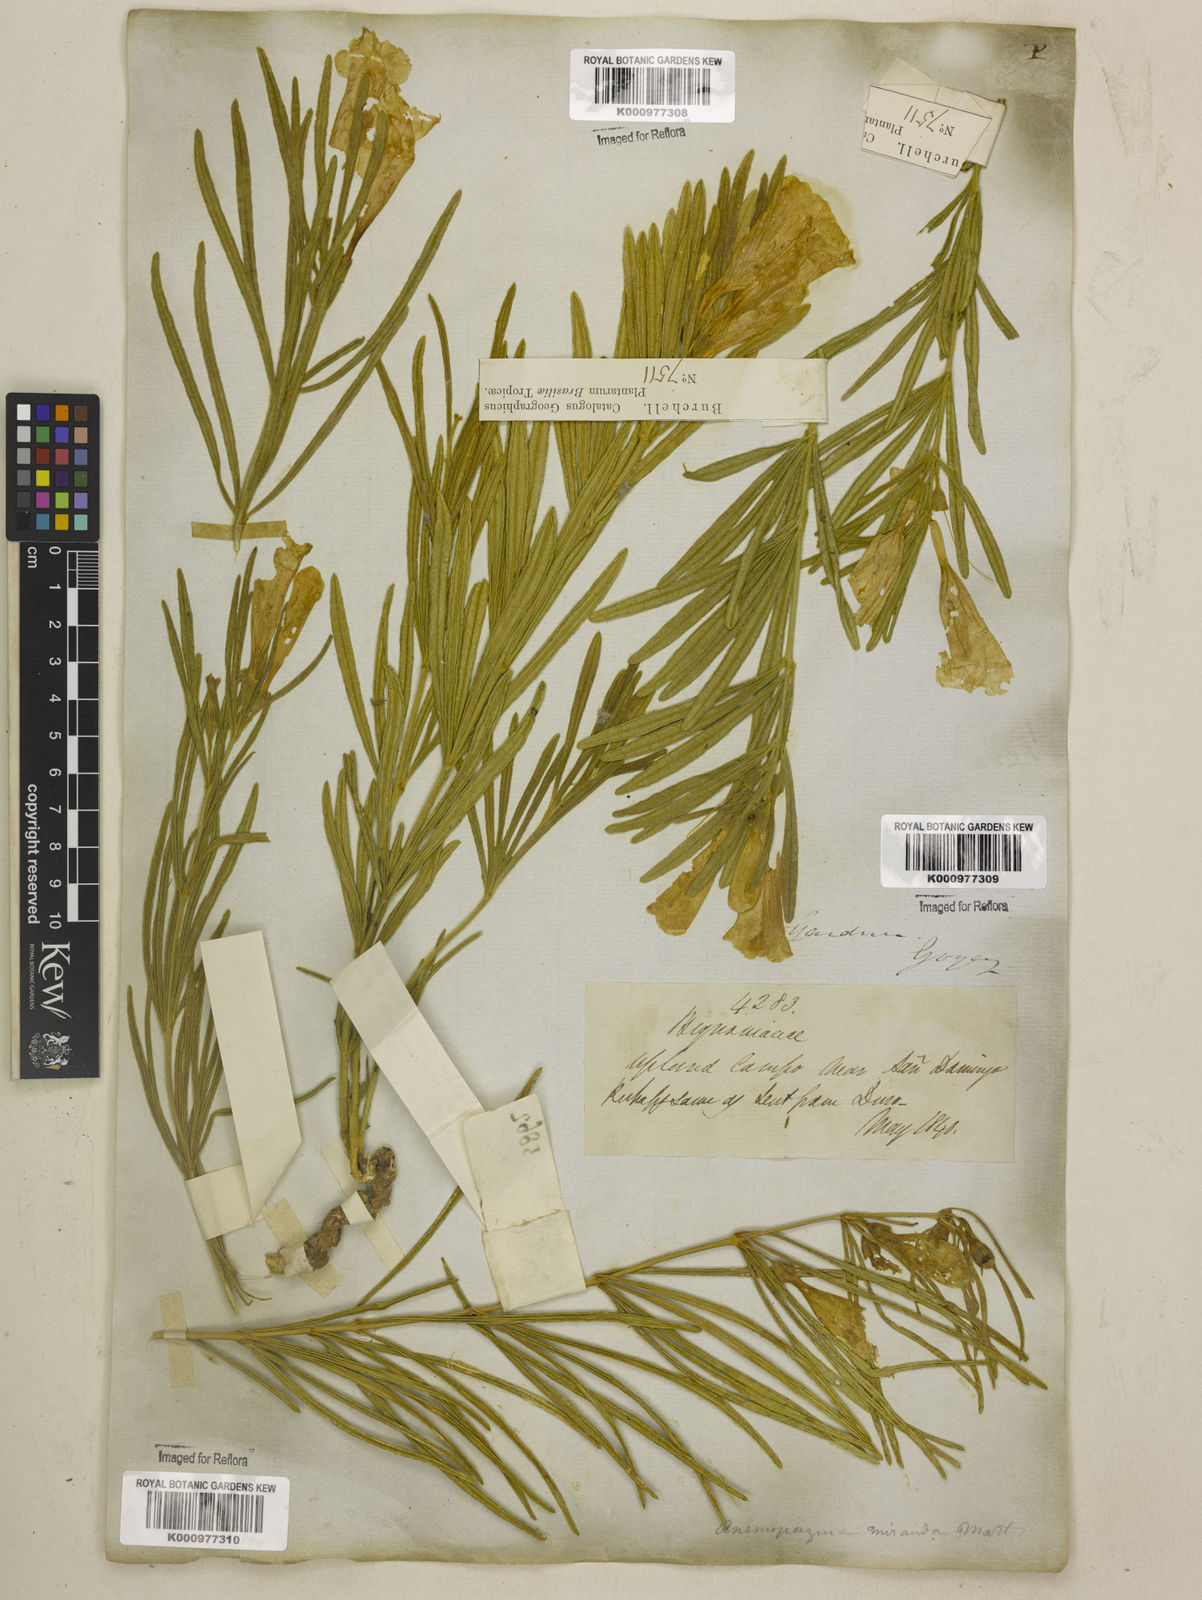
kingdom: Plantae
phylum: Tracheophyta
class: Magnoliopsida
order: Lamiales
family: Bignoniaceae
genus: Anemopaegma
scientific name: Anemopaegma arvense
